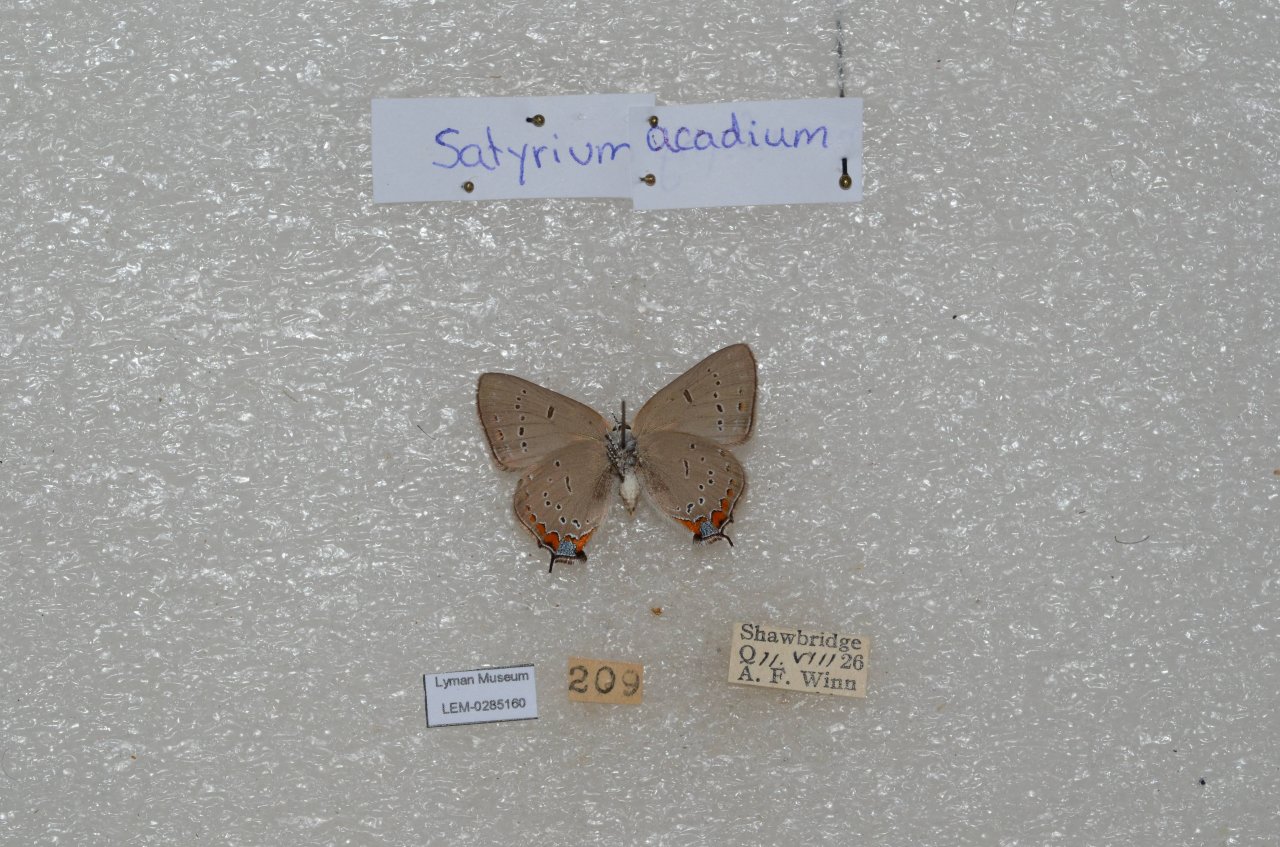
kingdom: Animalia
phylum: Arthropoda
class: Insecta
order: Lepidoptera
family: Lycaenidae
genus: Strymon
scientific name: Strymon acadica
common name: Acadian Hairstreak
